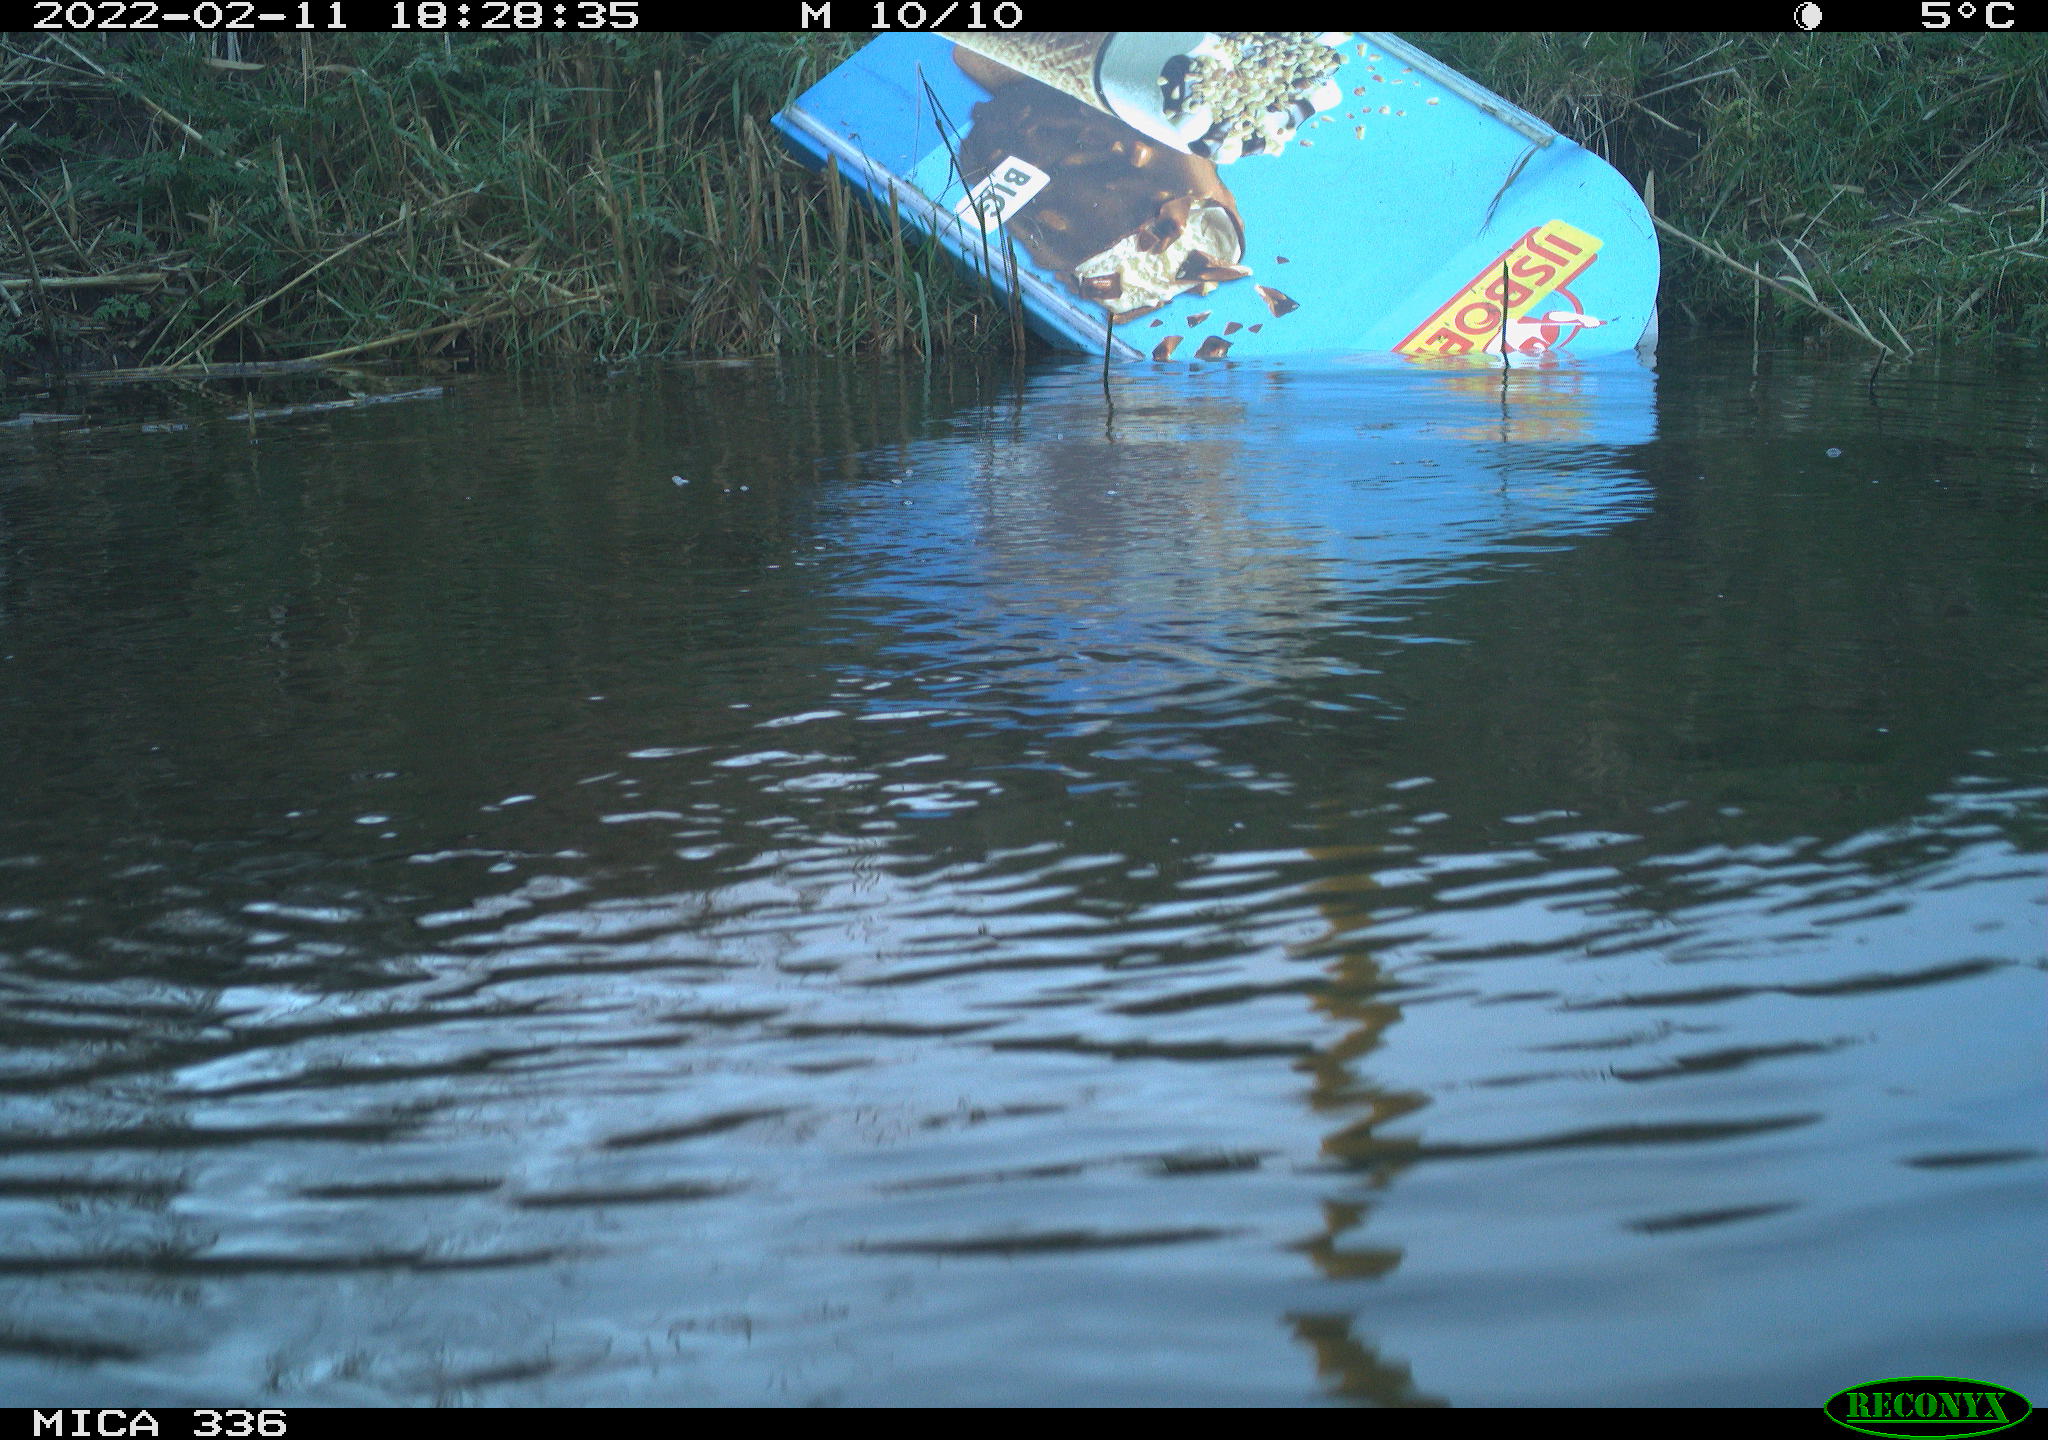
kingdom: Animalia
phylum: Chordata
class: Aves
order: Suliformes
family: Phalacrocoracidae
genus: Phalacrocorax
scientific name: Phalacrocorax carbo
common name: Great cormorant
